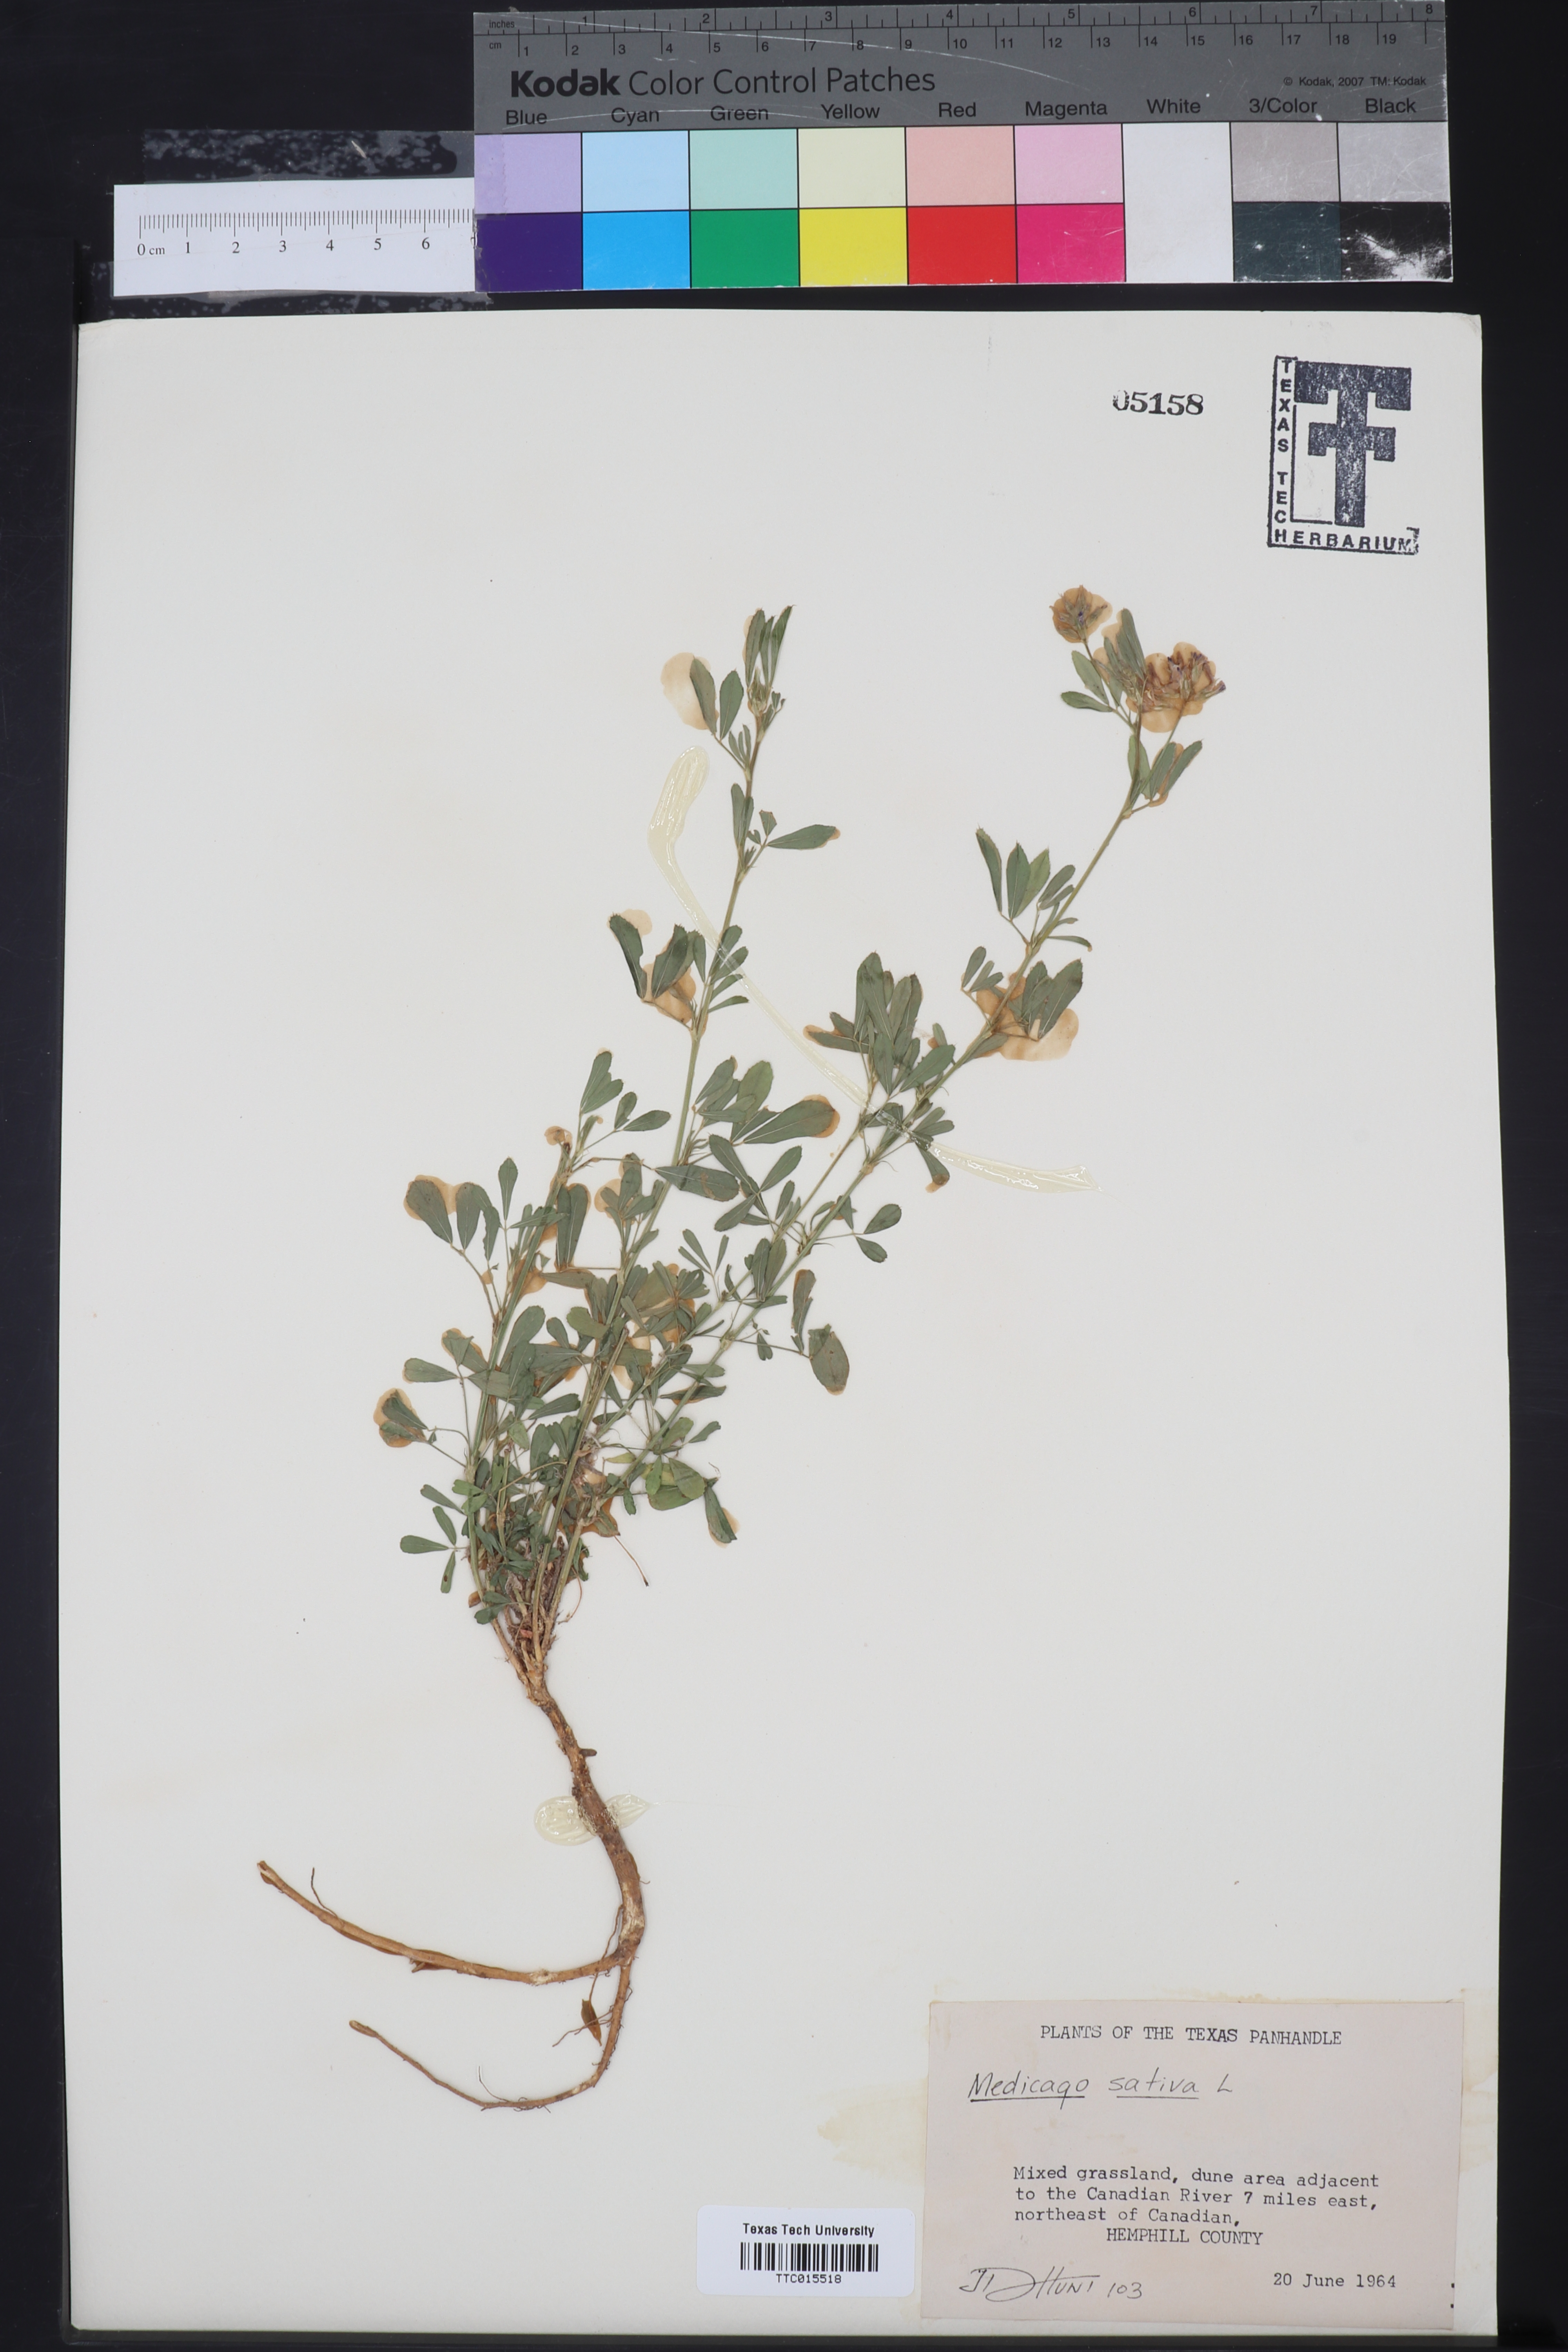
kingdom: Plantae
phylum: Tracheophyta
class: Magnoliopsida
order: Fabales
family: Fabaceae
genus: Medicago
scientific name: Medicago sativa
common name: Alfalfa
